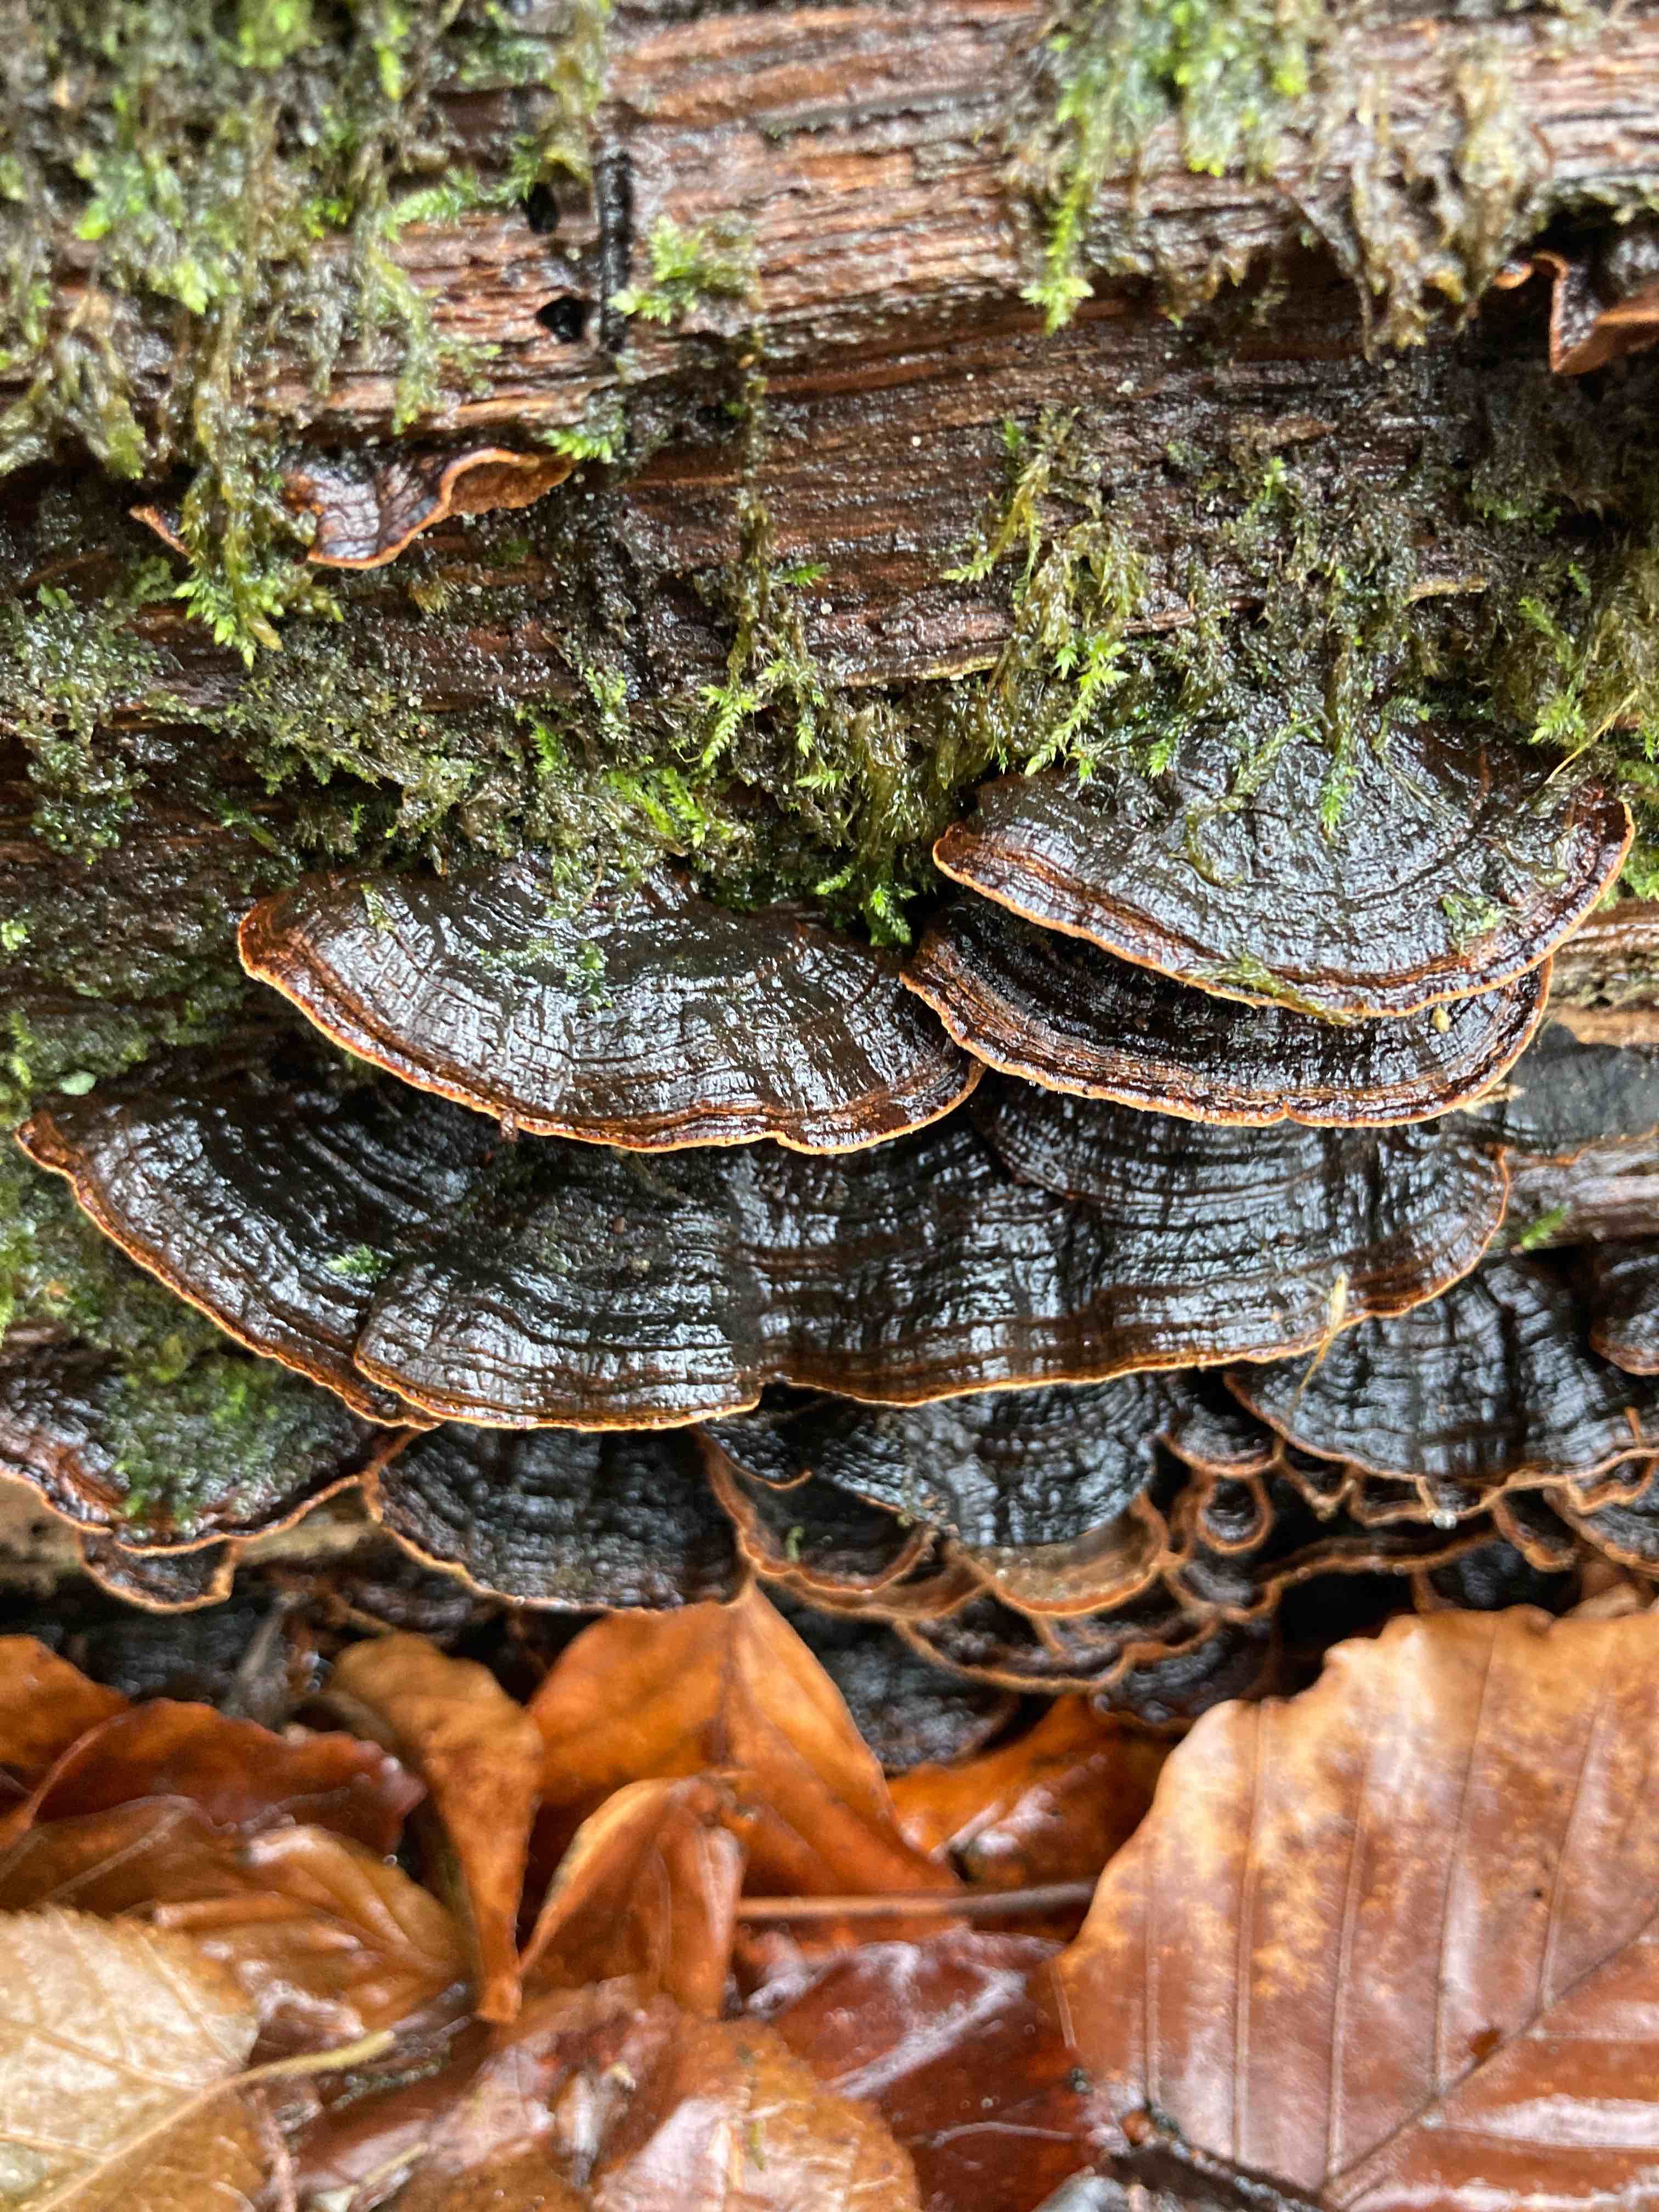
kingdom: Fungi
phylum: Basidiomycota
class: Agaricomycetes
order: Hymenochaetales
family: Hymenochaetaceae
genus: Hymenochaete
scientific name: Hymenochaete rubiginosa
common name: stiv ruslædersvamp
